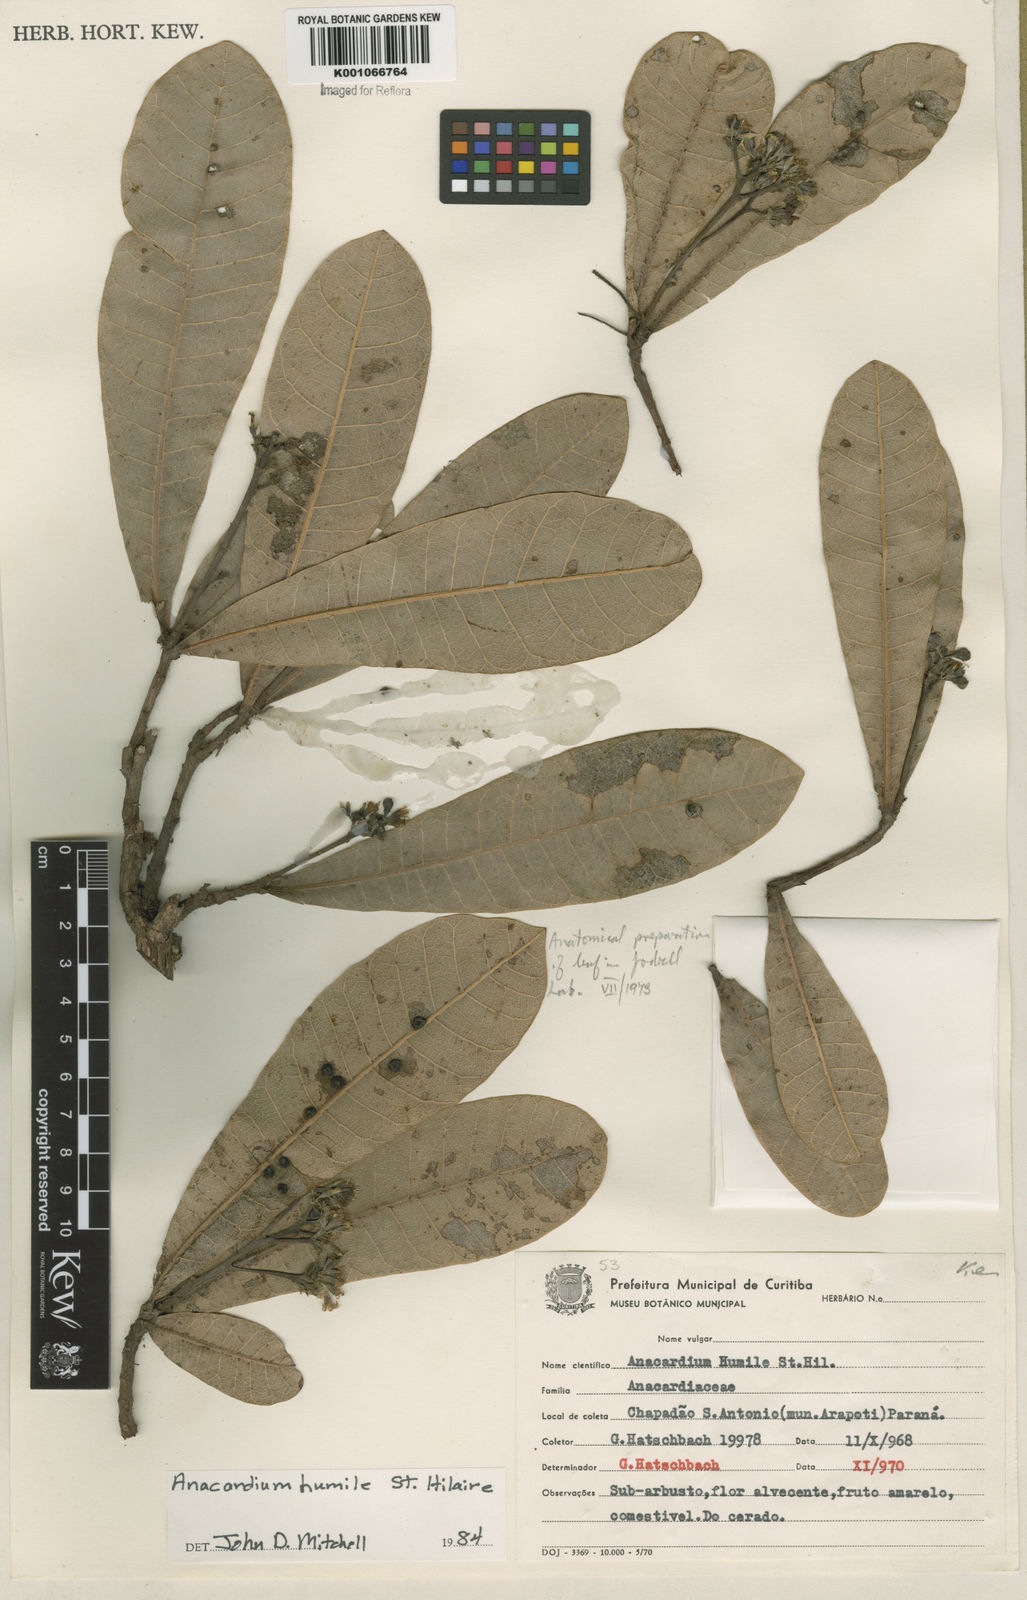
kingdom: Plantae
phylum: Tracheophyta
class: Magnoliopsida
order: Sapindales
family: Anacardiaceae
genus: Anacardium
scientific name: Anacardium humile
